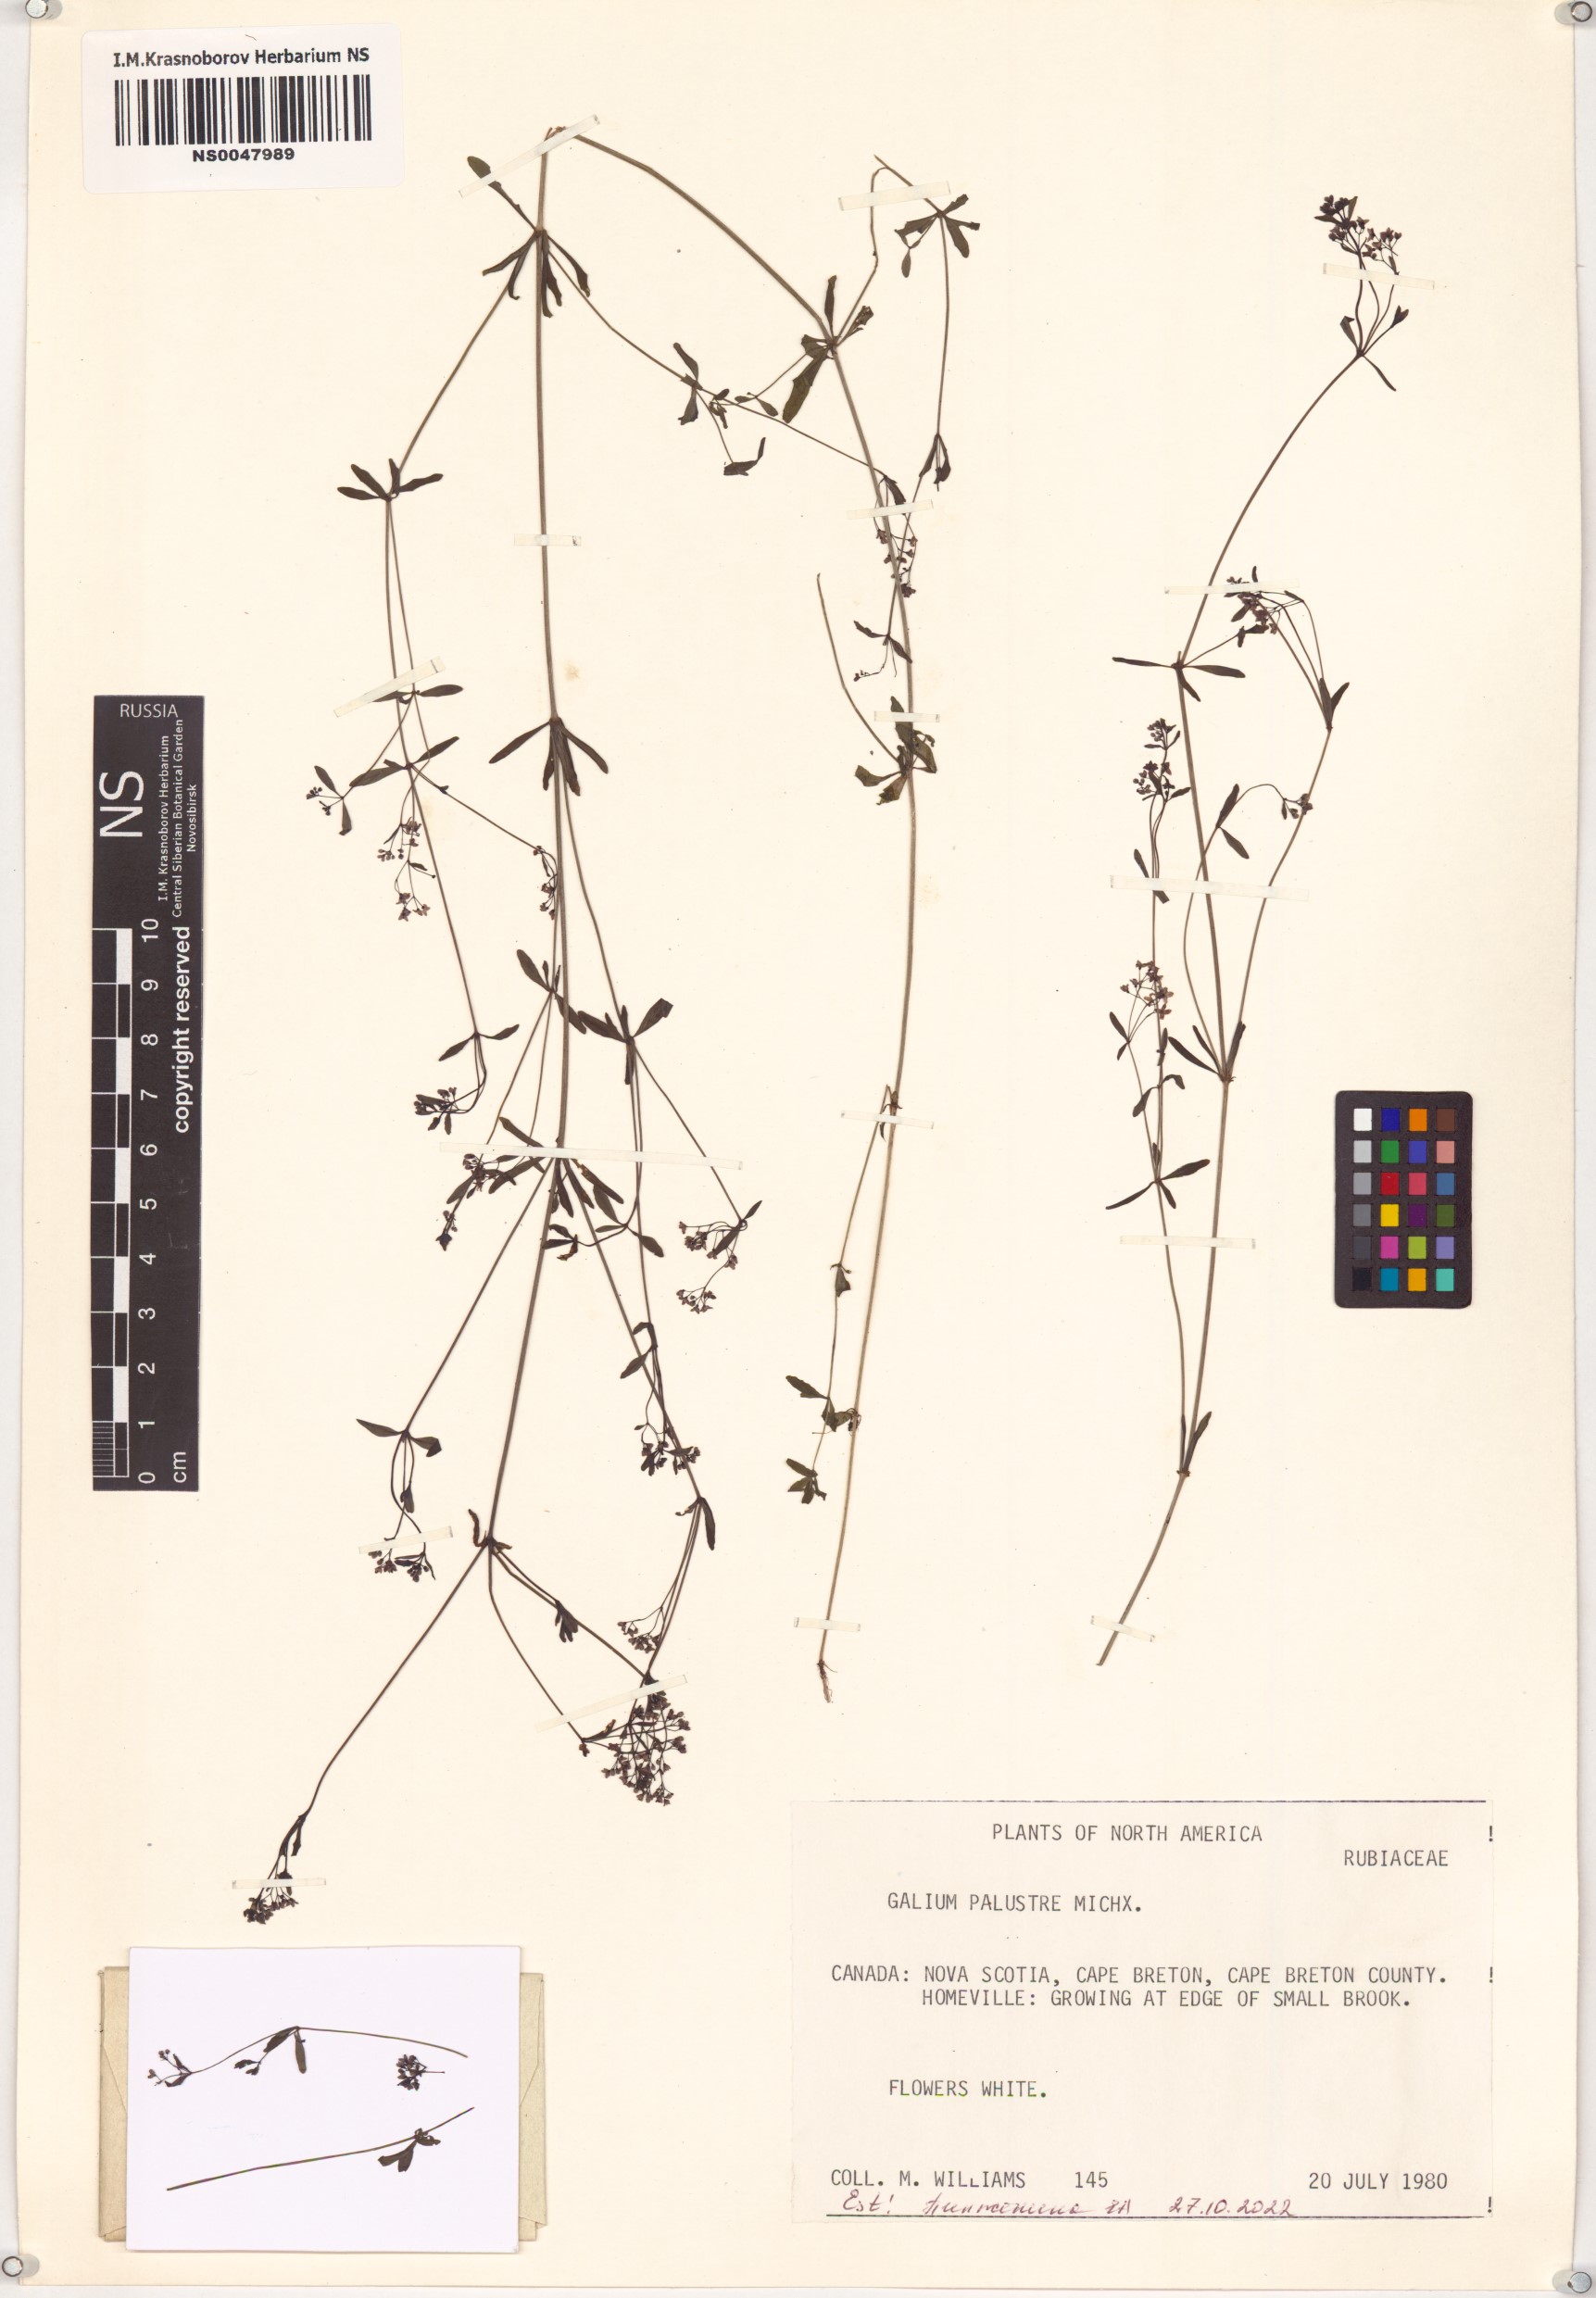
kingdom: Plantae
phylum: Tracheophyta
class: Magnoliopsida
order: Gentianales
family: Rubiaceae
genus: Galium
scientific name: Galium palustre
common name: Common marsh-bedstraw
